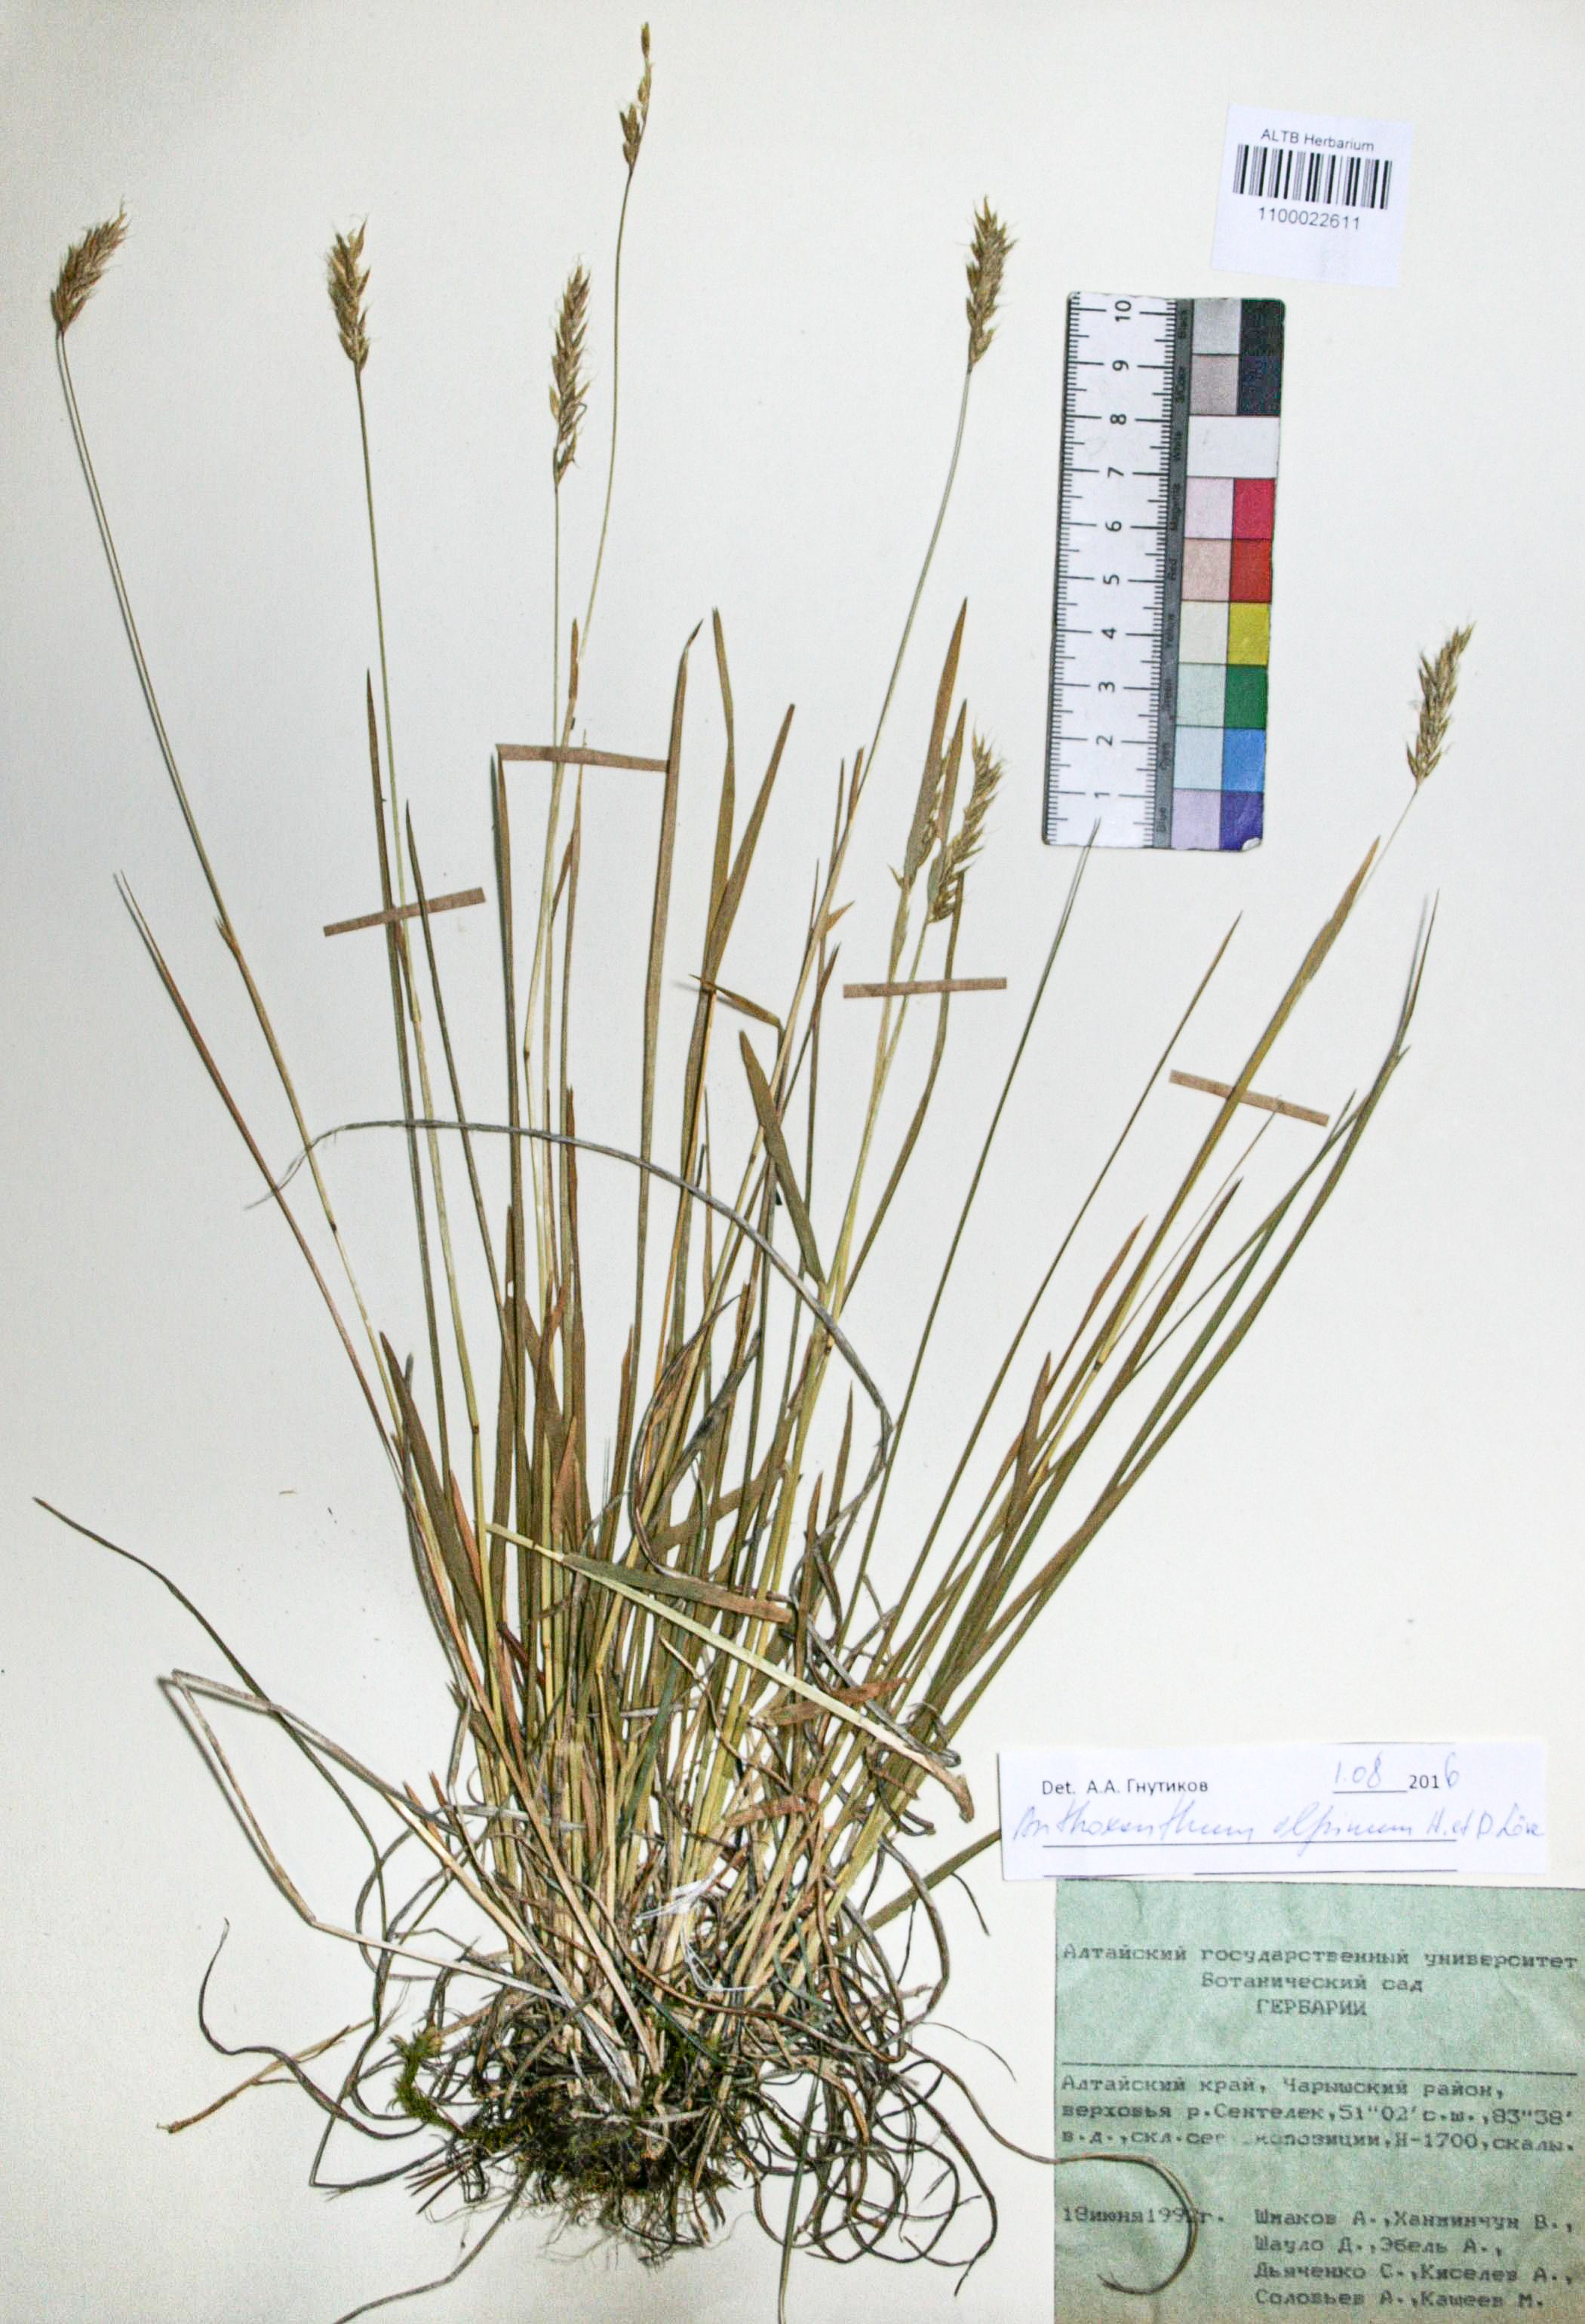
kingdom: Plantae
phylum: Tracheophyta
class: Liliopsida
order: Poales
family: Poaceae
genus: Anthoxanthum
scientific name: Anthoxanthum nipponicum
